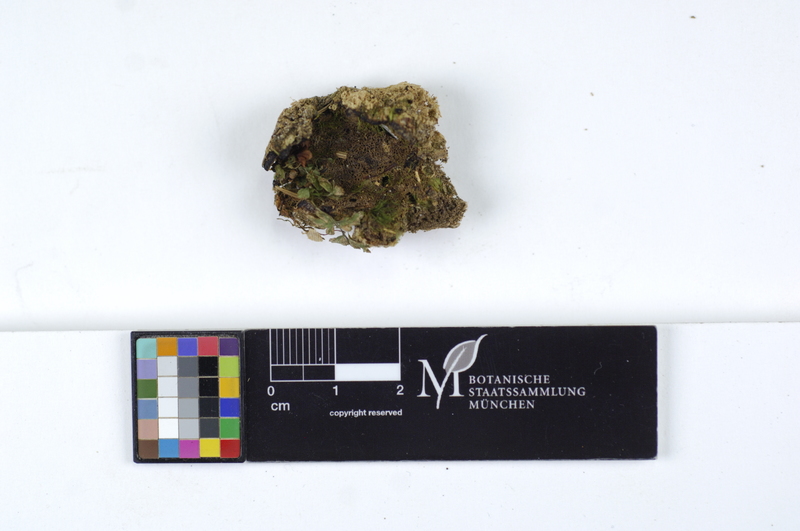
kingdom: Plantae
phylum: Tracheophyta
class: Pinopsida
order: Pinales
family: Pinaceae
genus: Picea
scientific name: Picea
